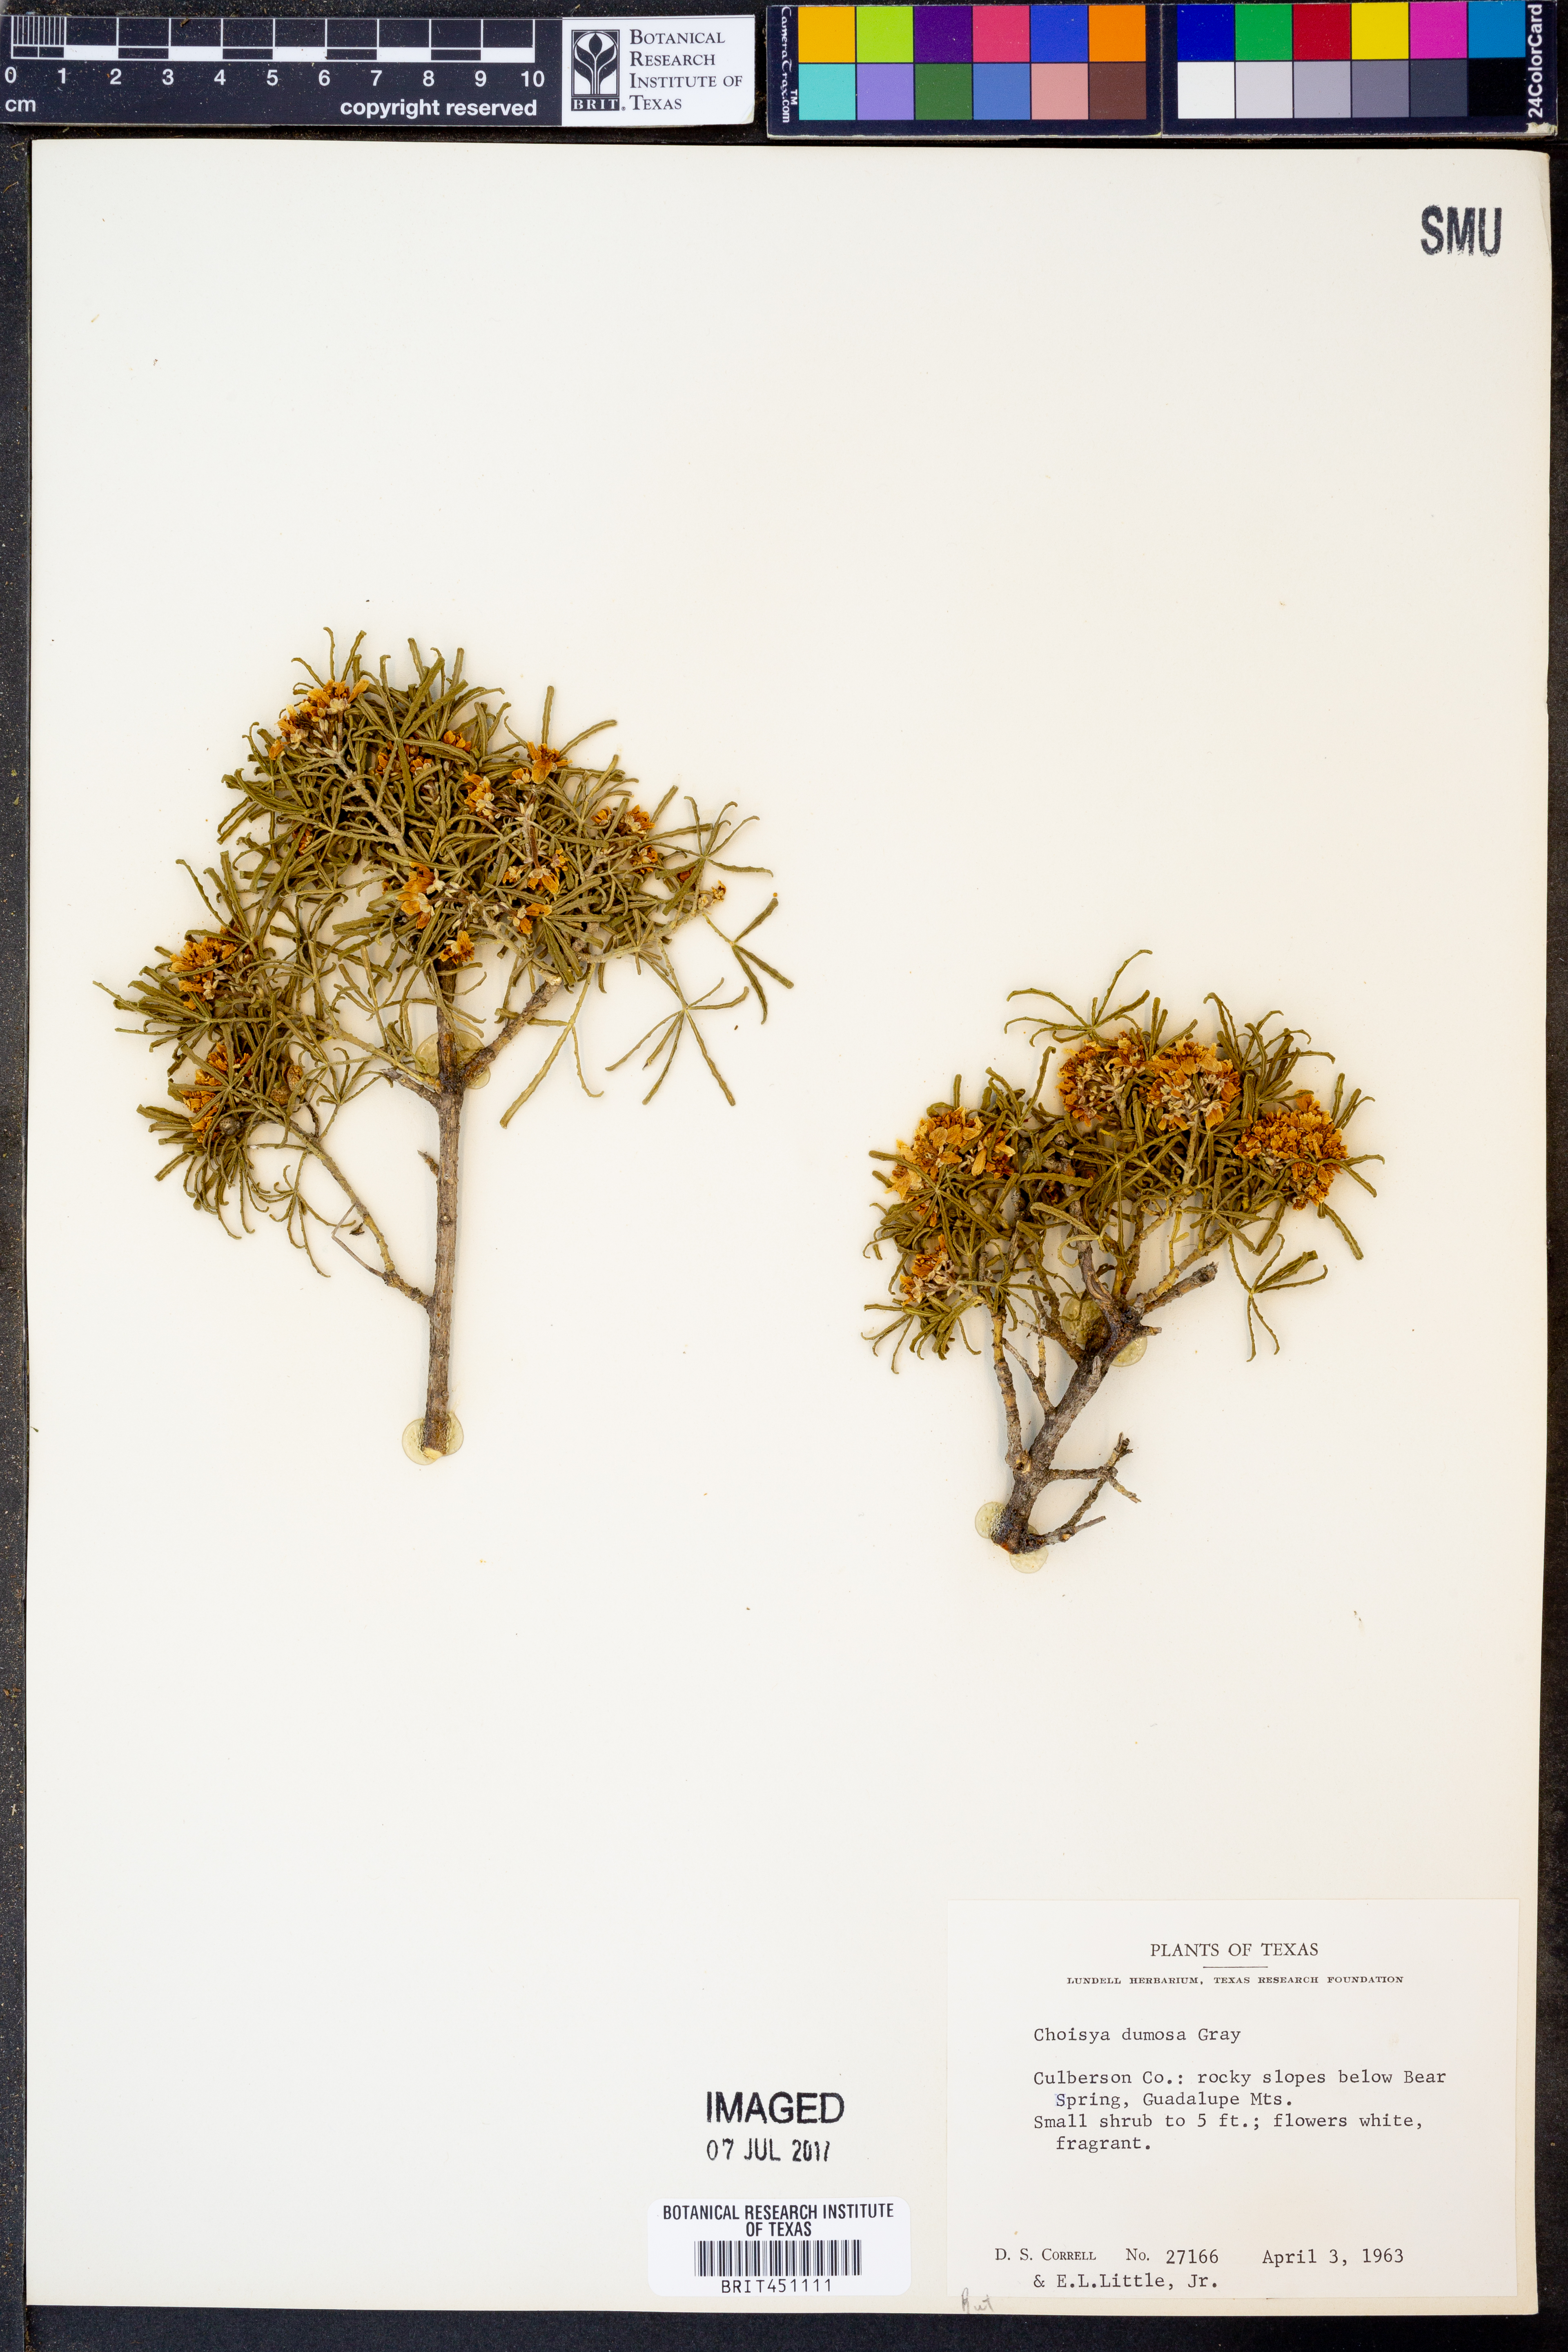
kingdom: Plantae
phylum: Tracheophyta
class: Magnoliopsida
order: Sapindales
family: Rutaceae
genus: Choisya
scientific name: Choisya dumosa
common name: Mexican-orange
